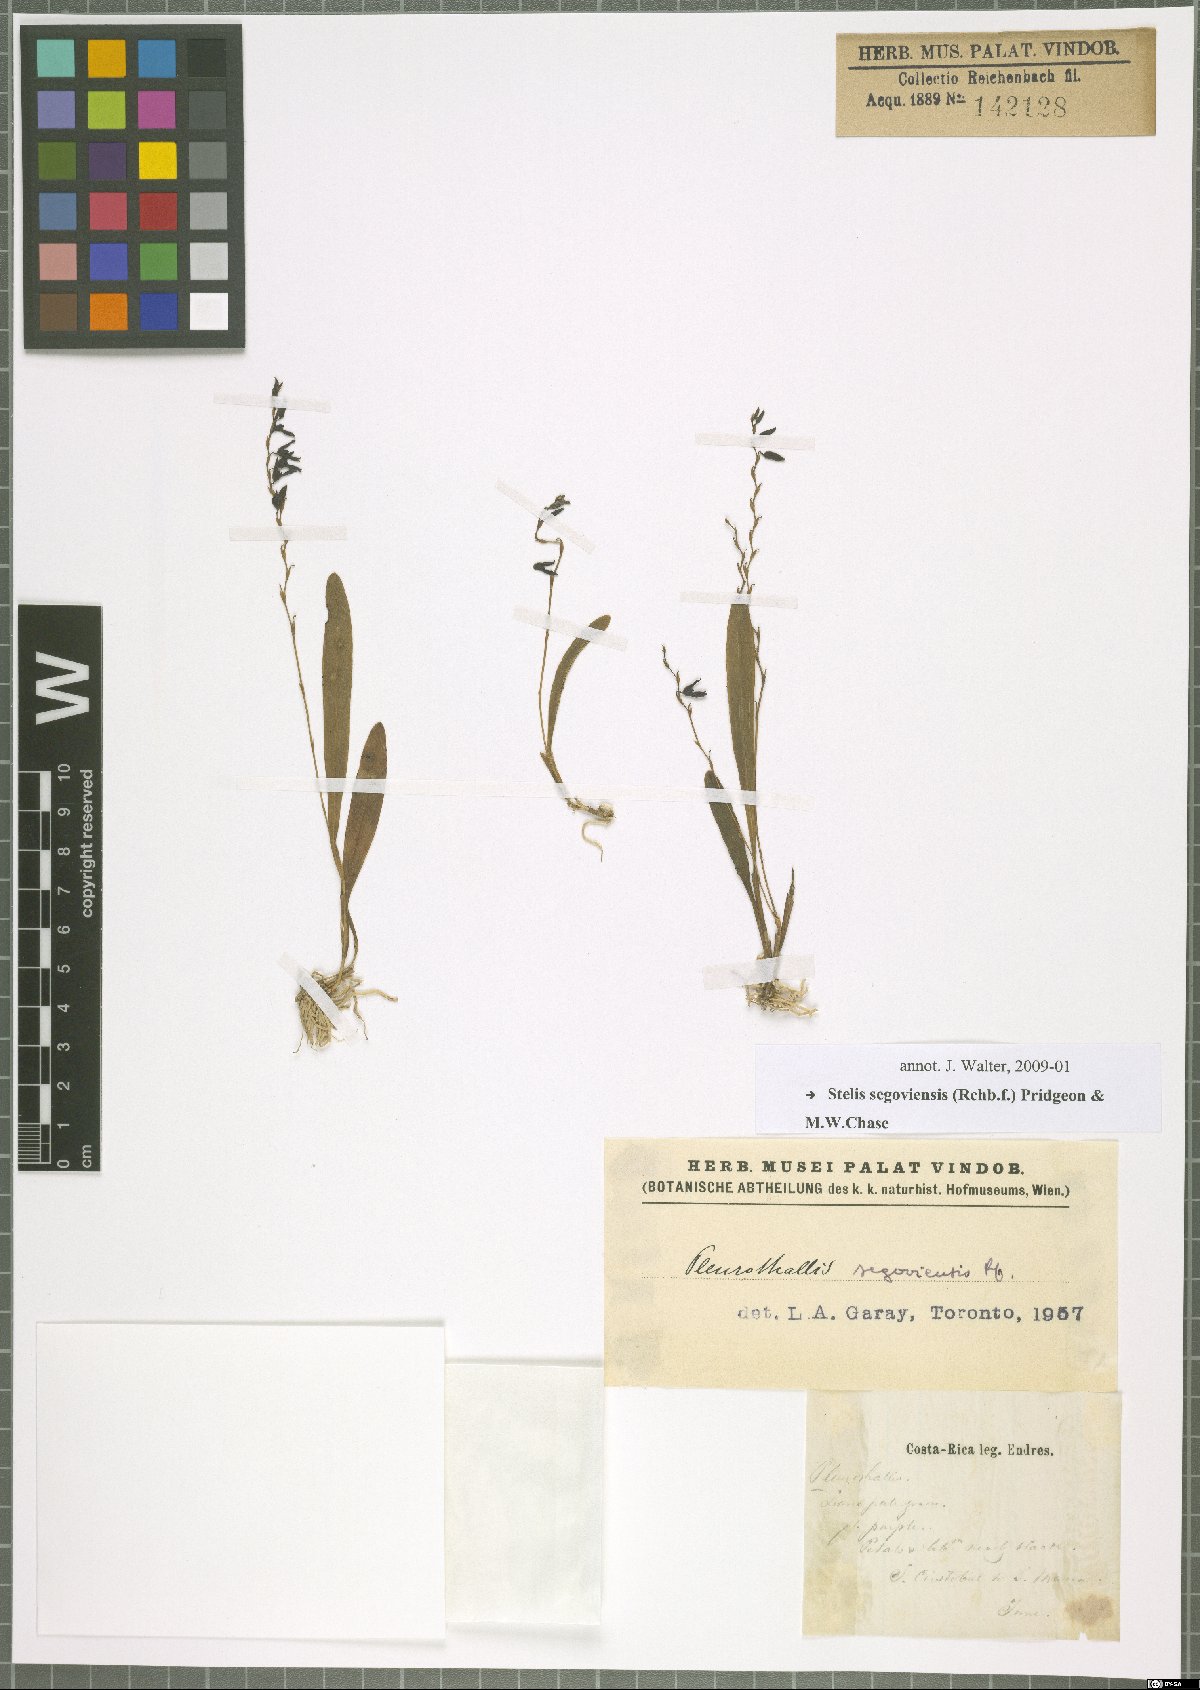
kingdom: Plantae
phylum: Tracheophyta
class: Liliopsida
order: Asparagales
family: Orchidaceae
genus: Stelis
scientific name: Stelis segoviensis
